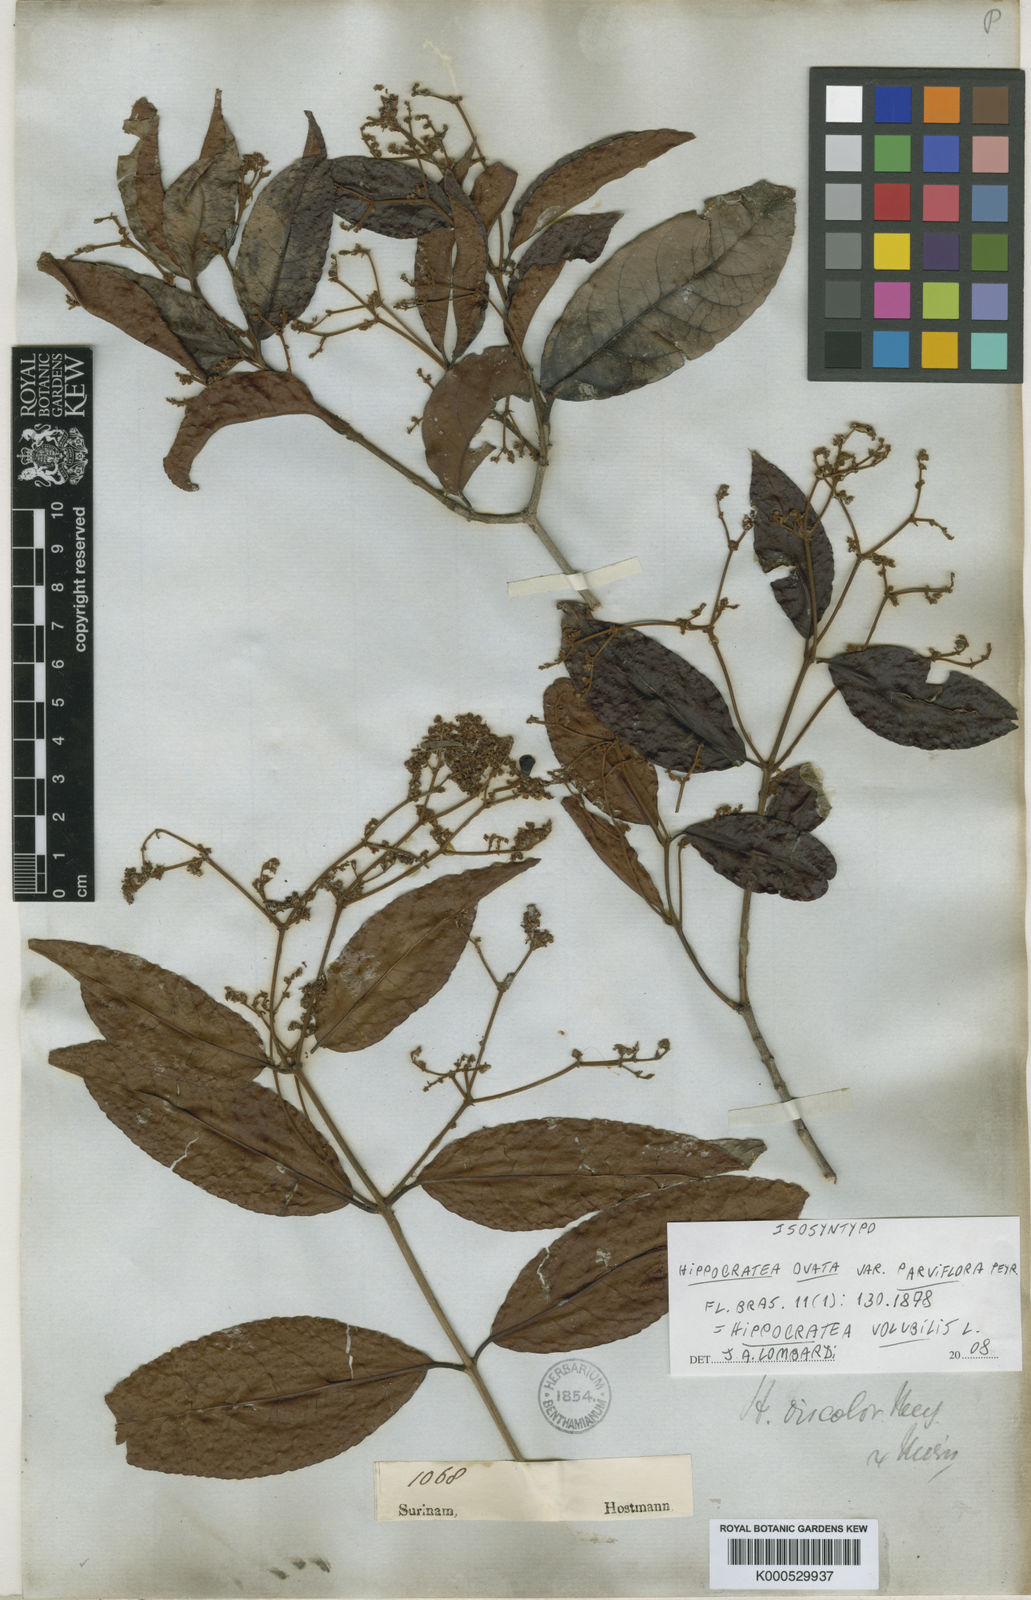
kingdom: Plantae
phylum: Tracheophyta
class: Magnoliopsida
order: Celastrales
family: Celastraceae
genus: Hippocratea
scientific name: Hippocratea volubilis
